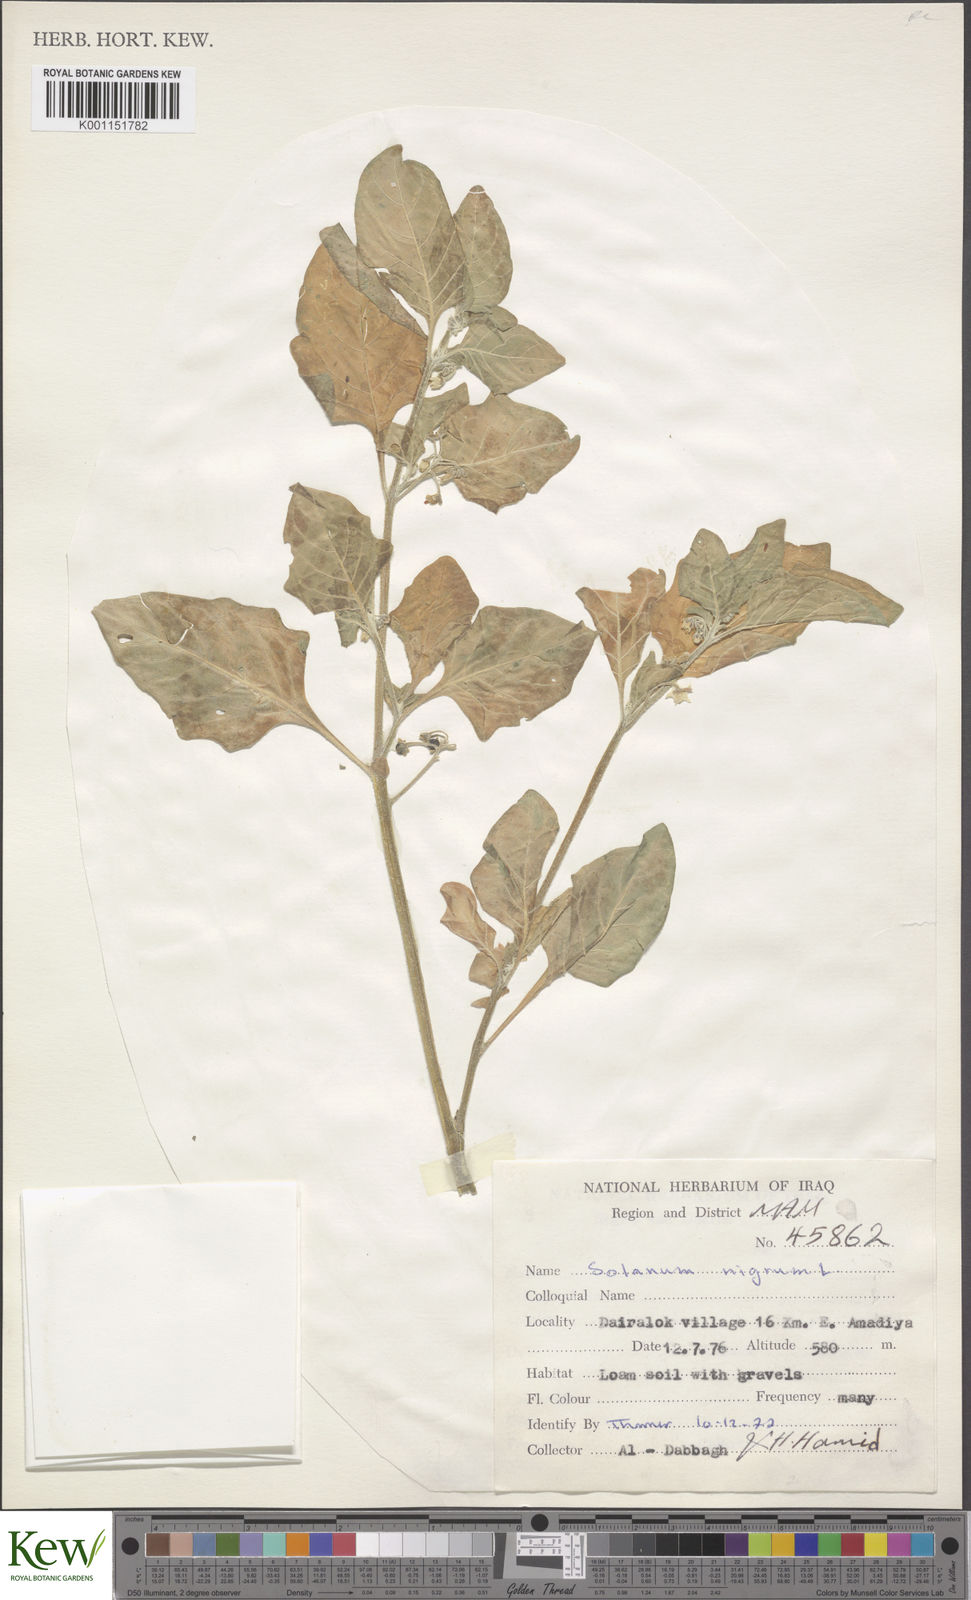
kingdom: Plantae
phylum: Tracheophyta
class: Magnoliopsida
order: Solanales
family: Solanaceae
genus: Solanum
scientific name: Solanum nigrum
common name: Black nightshade
